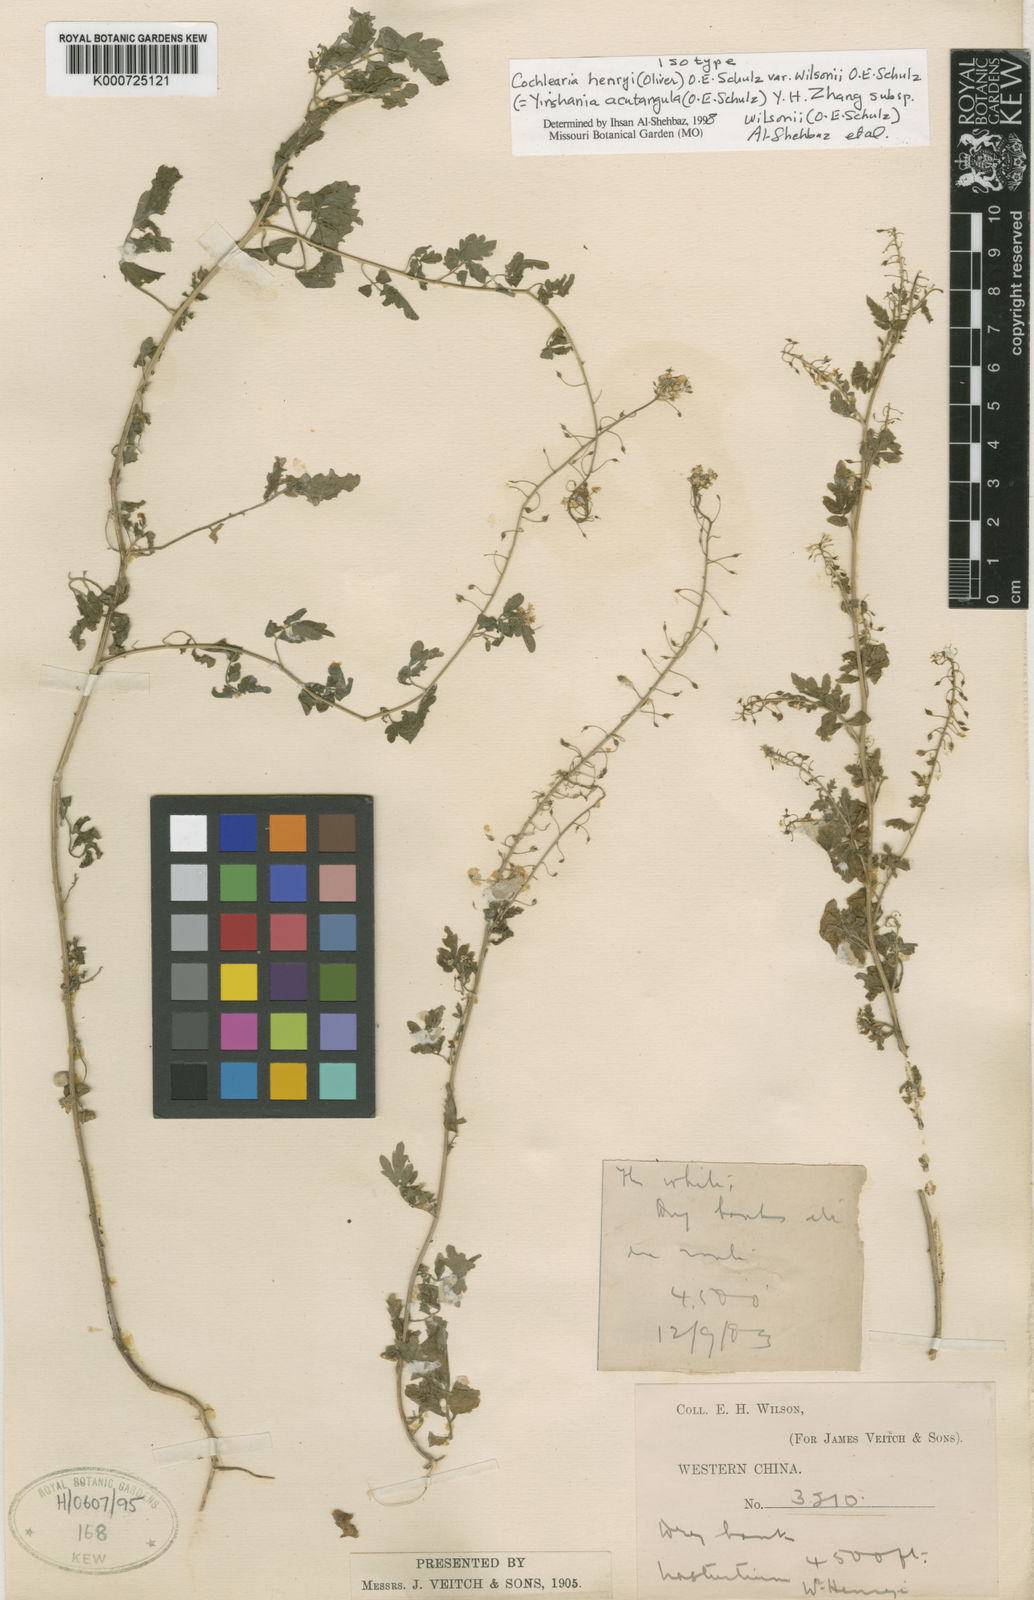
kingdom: Plantae
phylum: Tracheophyta
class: Magnoliopsida
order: Brassicales
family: Brassicaceae
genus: Yinshania
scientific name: Yinshania henryi
